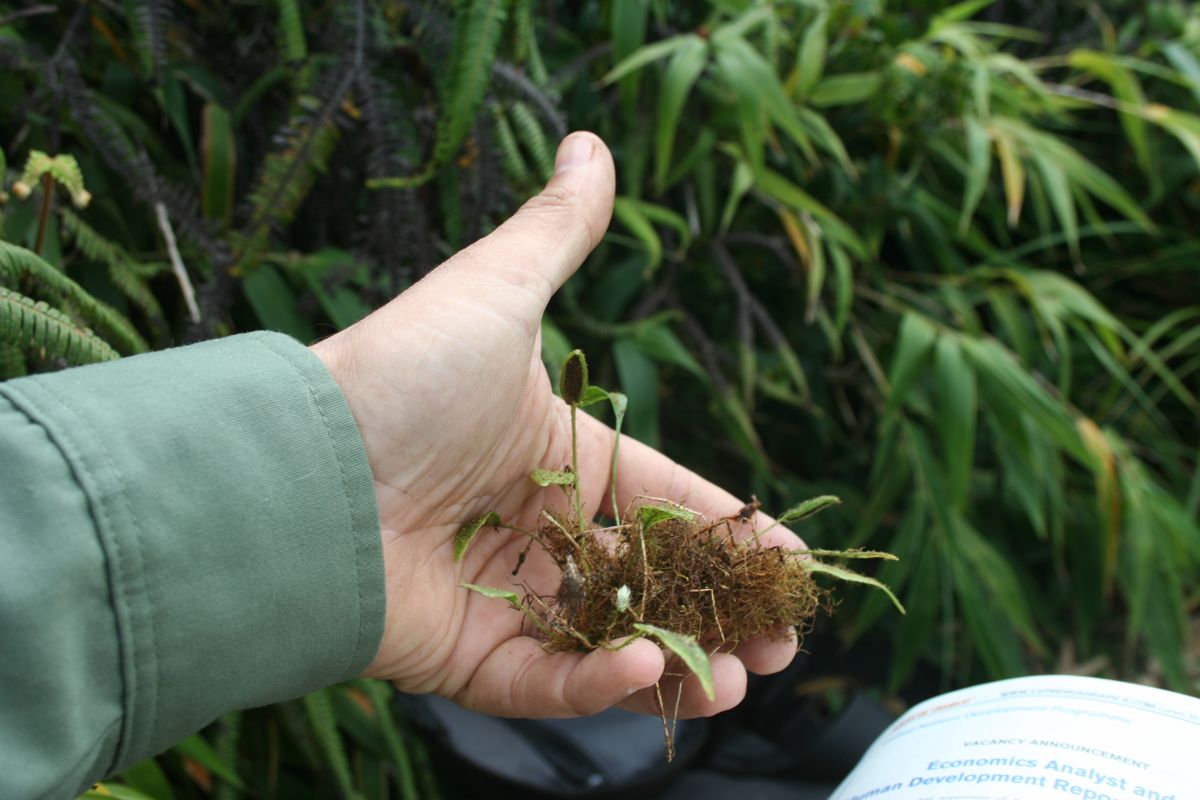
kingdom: Plantae
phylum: Tracheophyta
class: Polypodiopsida
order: Polypodiales
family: Dryopteridaceae
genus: Elaphoglossum
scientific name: Elaphoglossum lanceum
